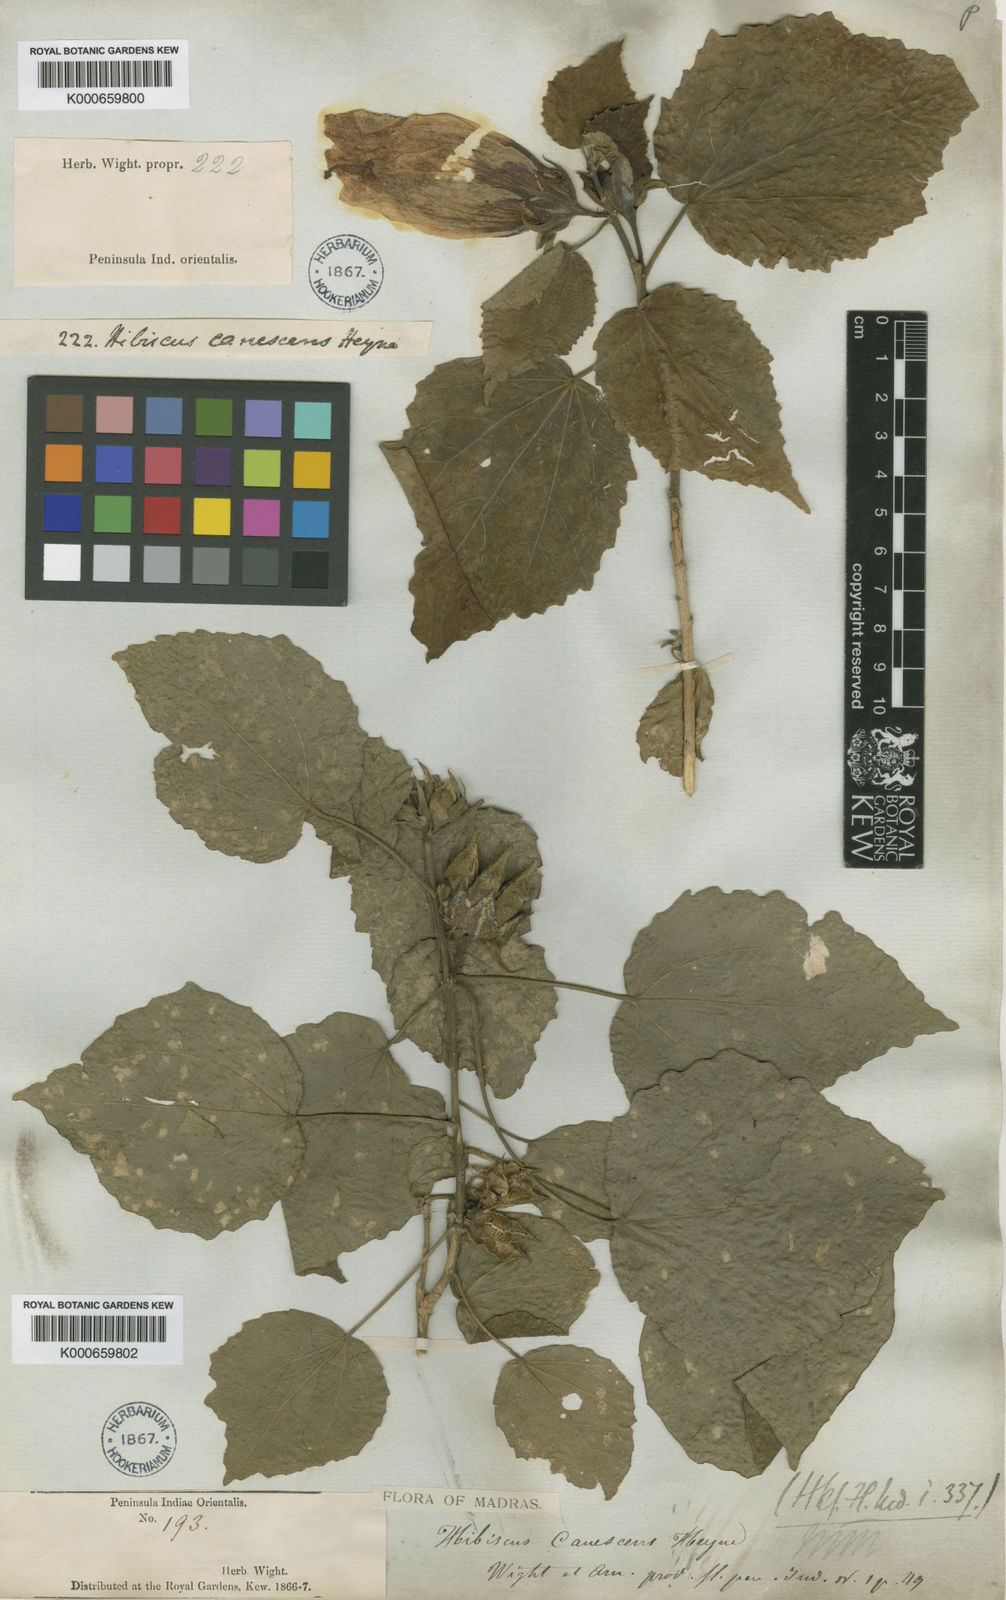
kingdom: Plantae
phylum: Tracheophyta
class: Magnoliopsida
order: Malvales
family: Malvaceae
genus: Hibiscus
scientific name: Hibiscus
